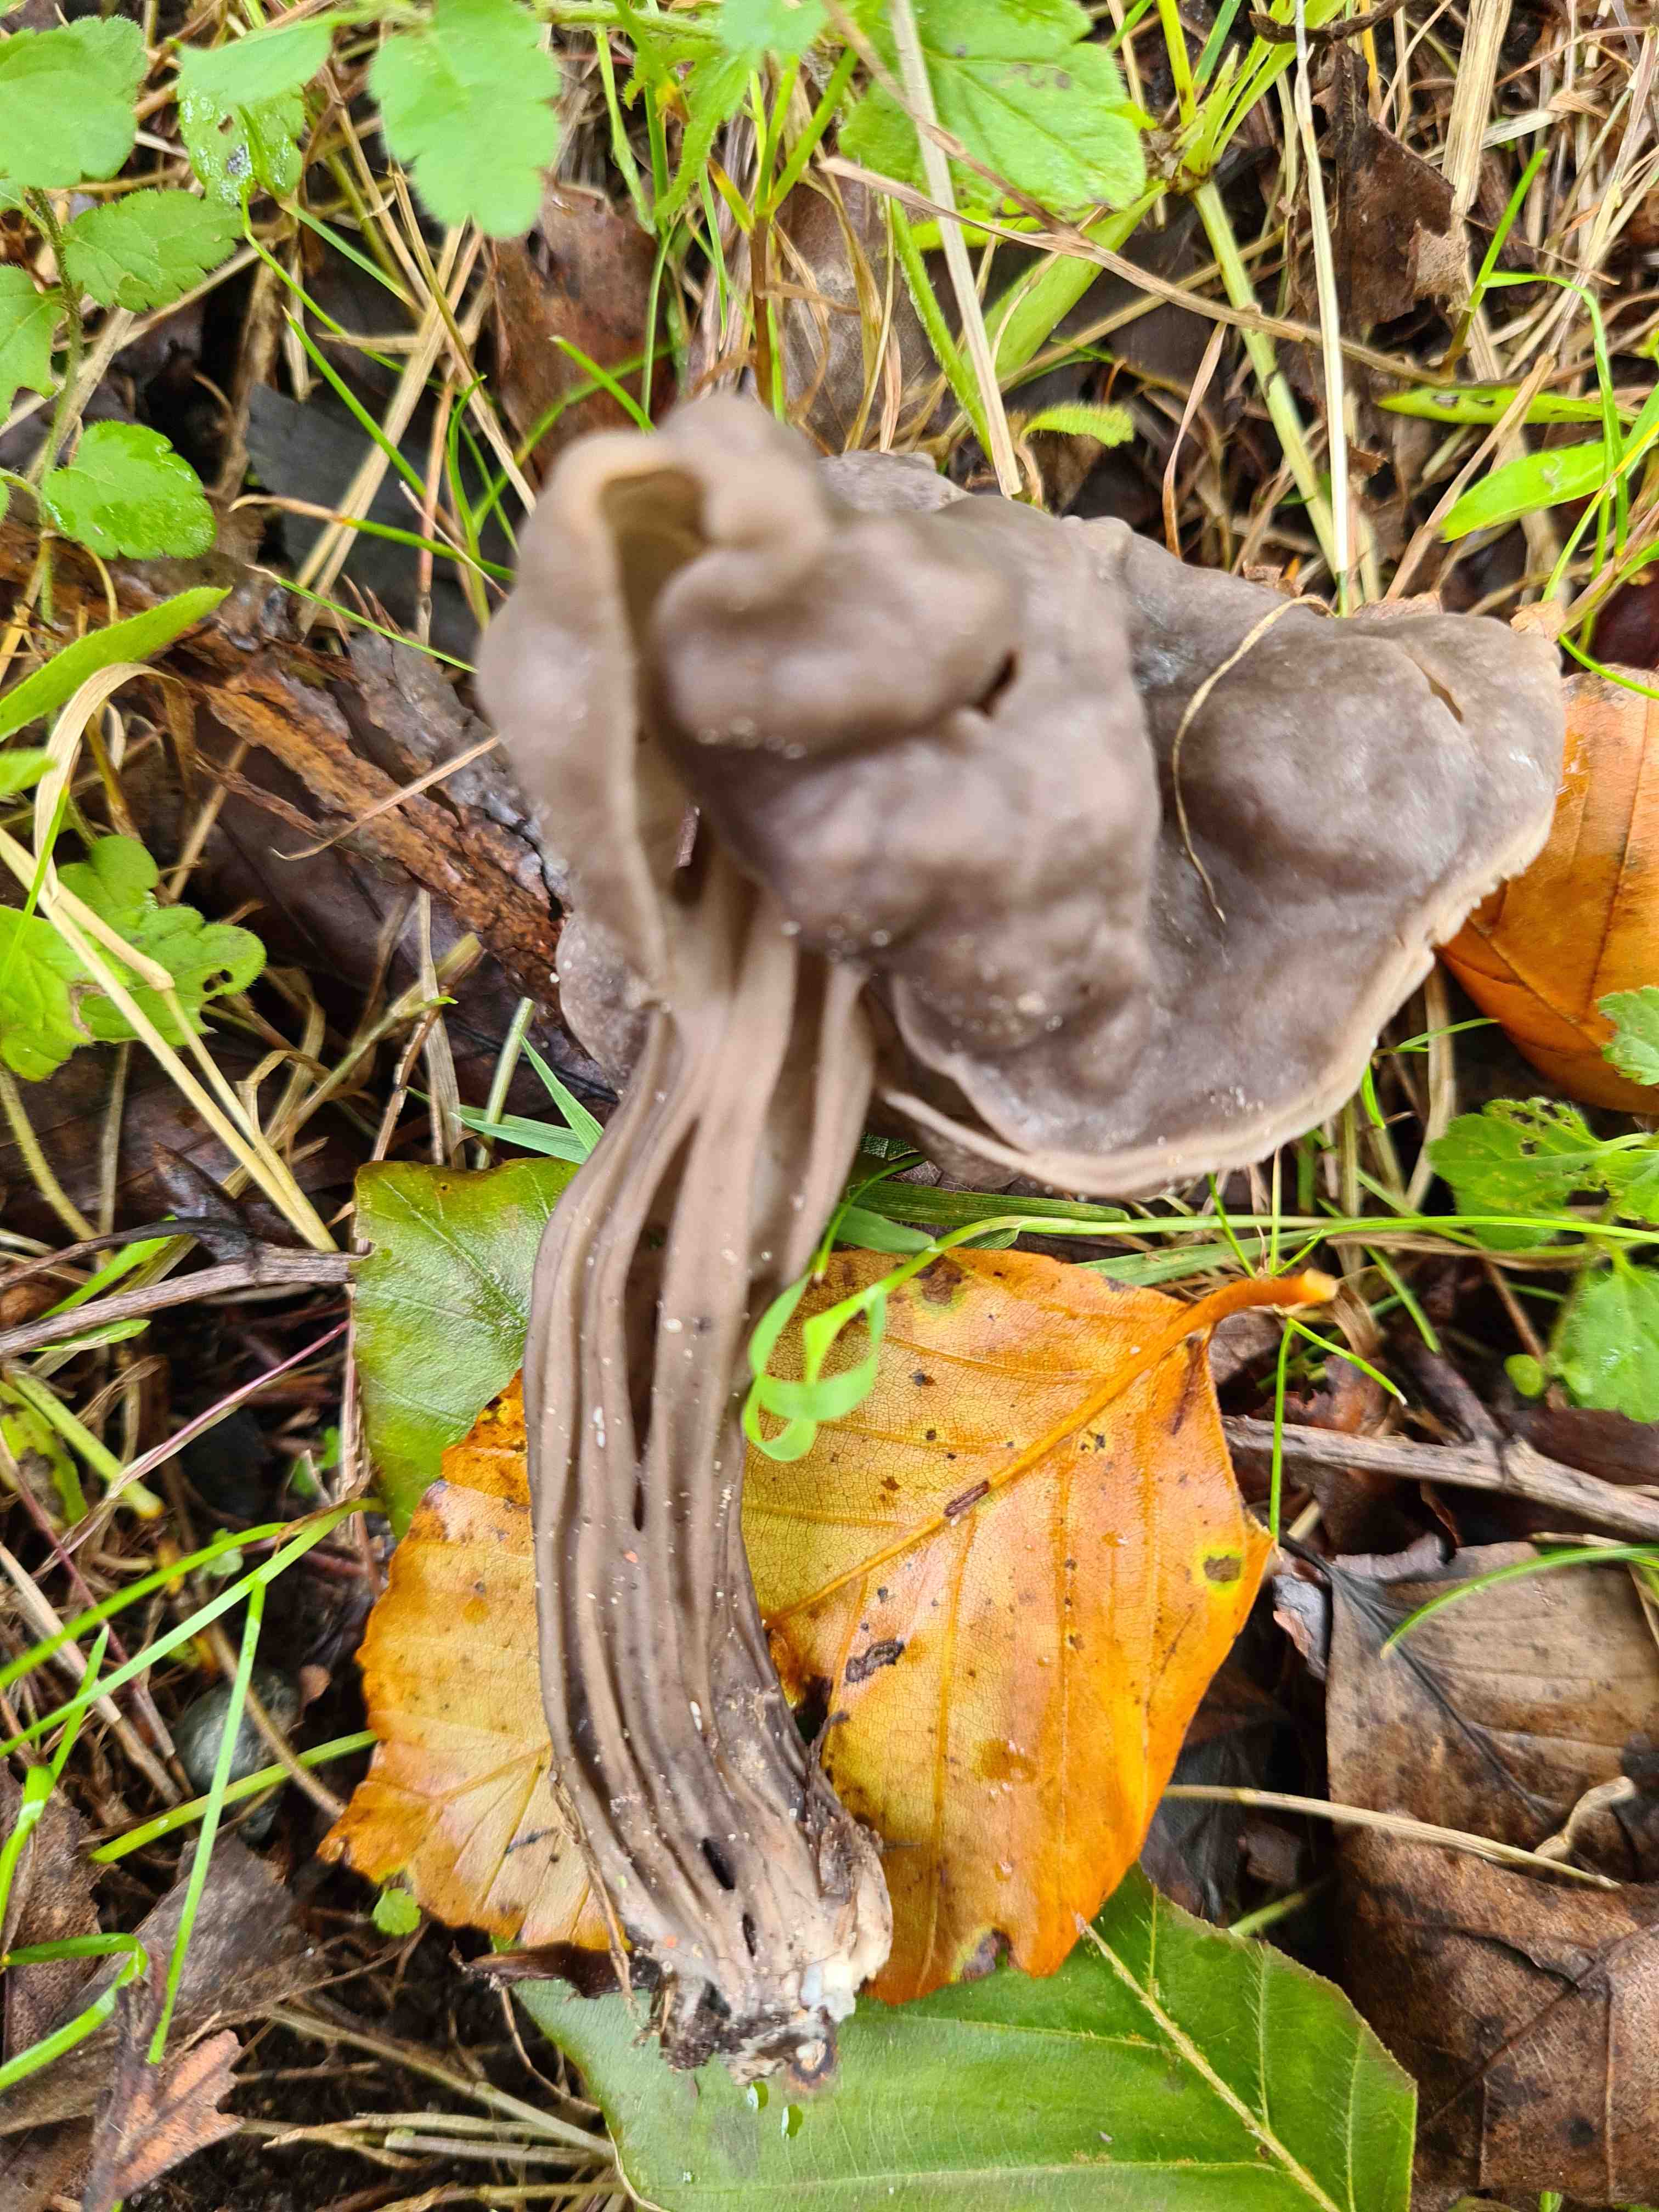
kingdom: Fungi
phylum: Ascomycota
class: Pezizomycetes
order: Pezizales
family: Helvellaceae
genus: Helvella
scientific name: Helvella lacunosa
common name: grubet foldhat
